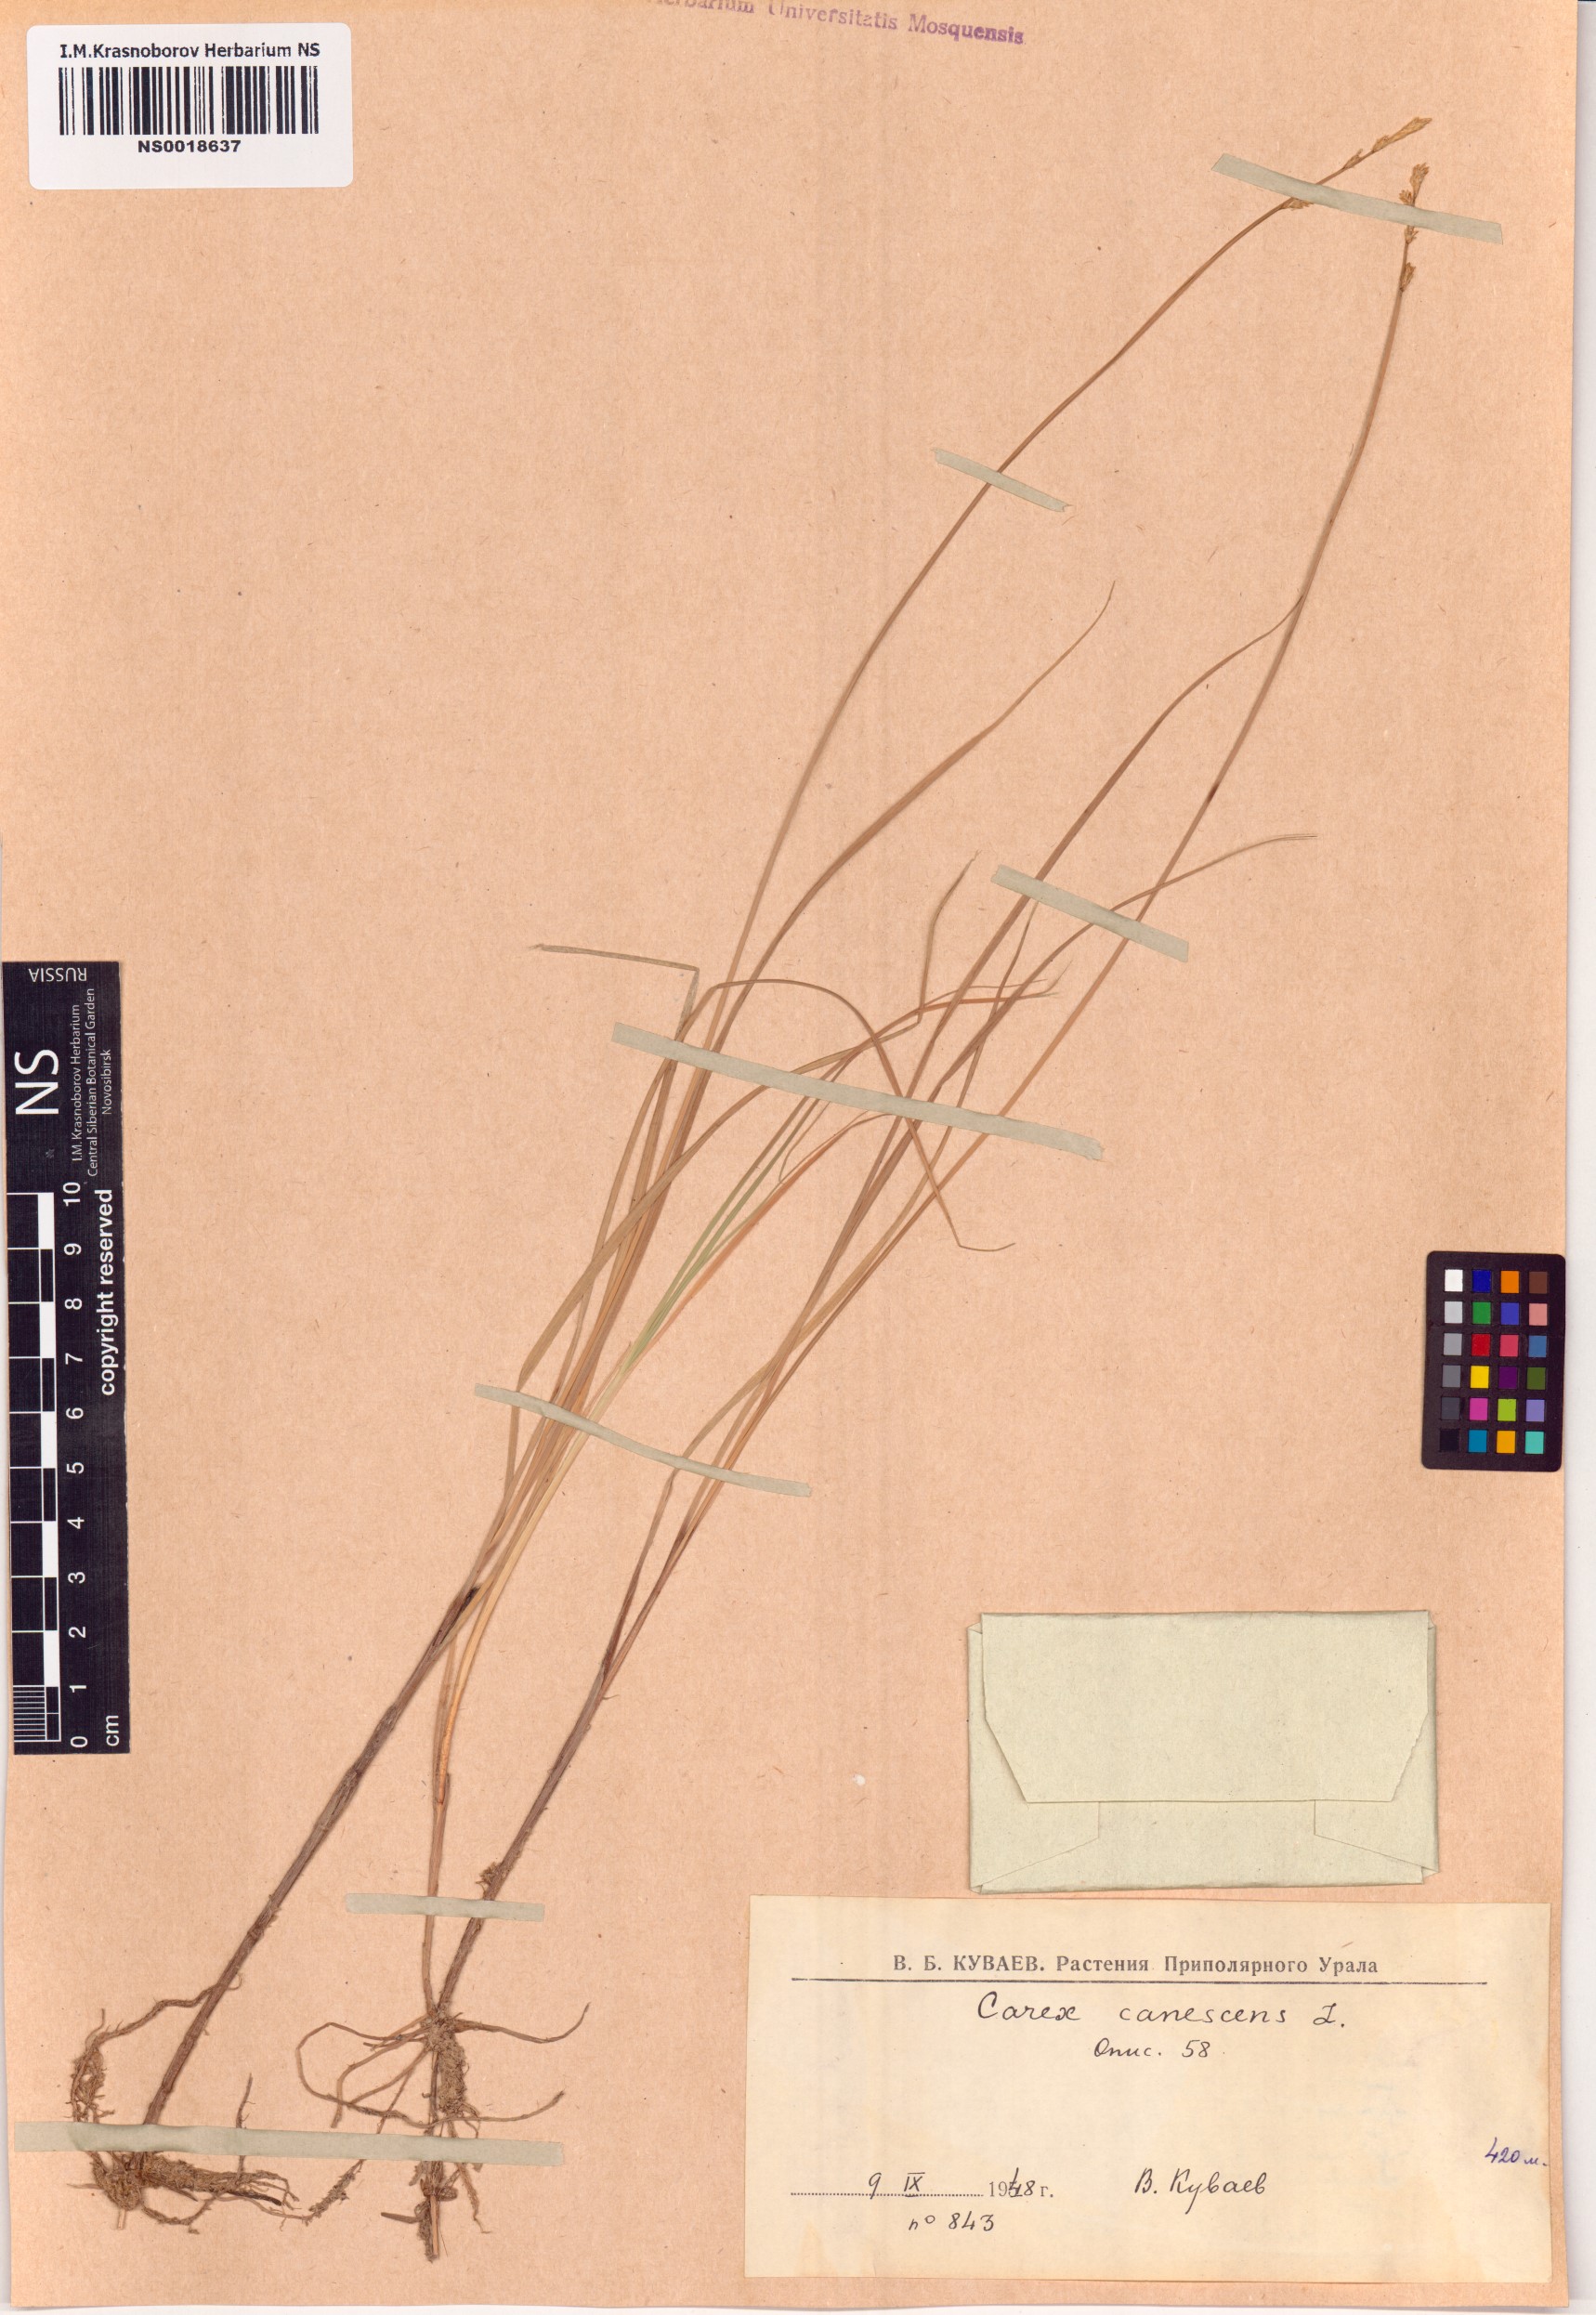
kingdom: Plantae
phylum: Tracheophyta
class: Liliopsida
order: Poales
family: Cyperaceae
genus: Carex
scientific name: Carex canescens
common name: White sedge
